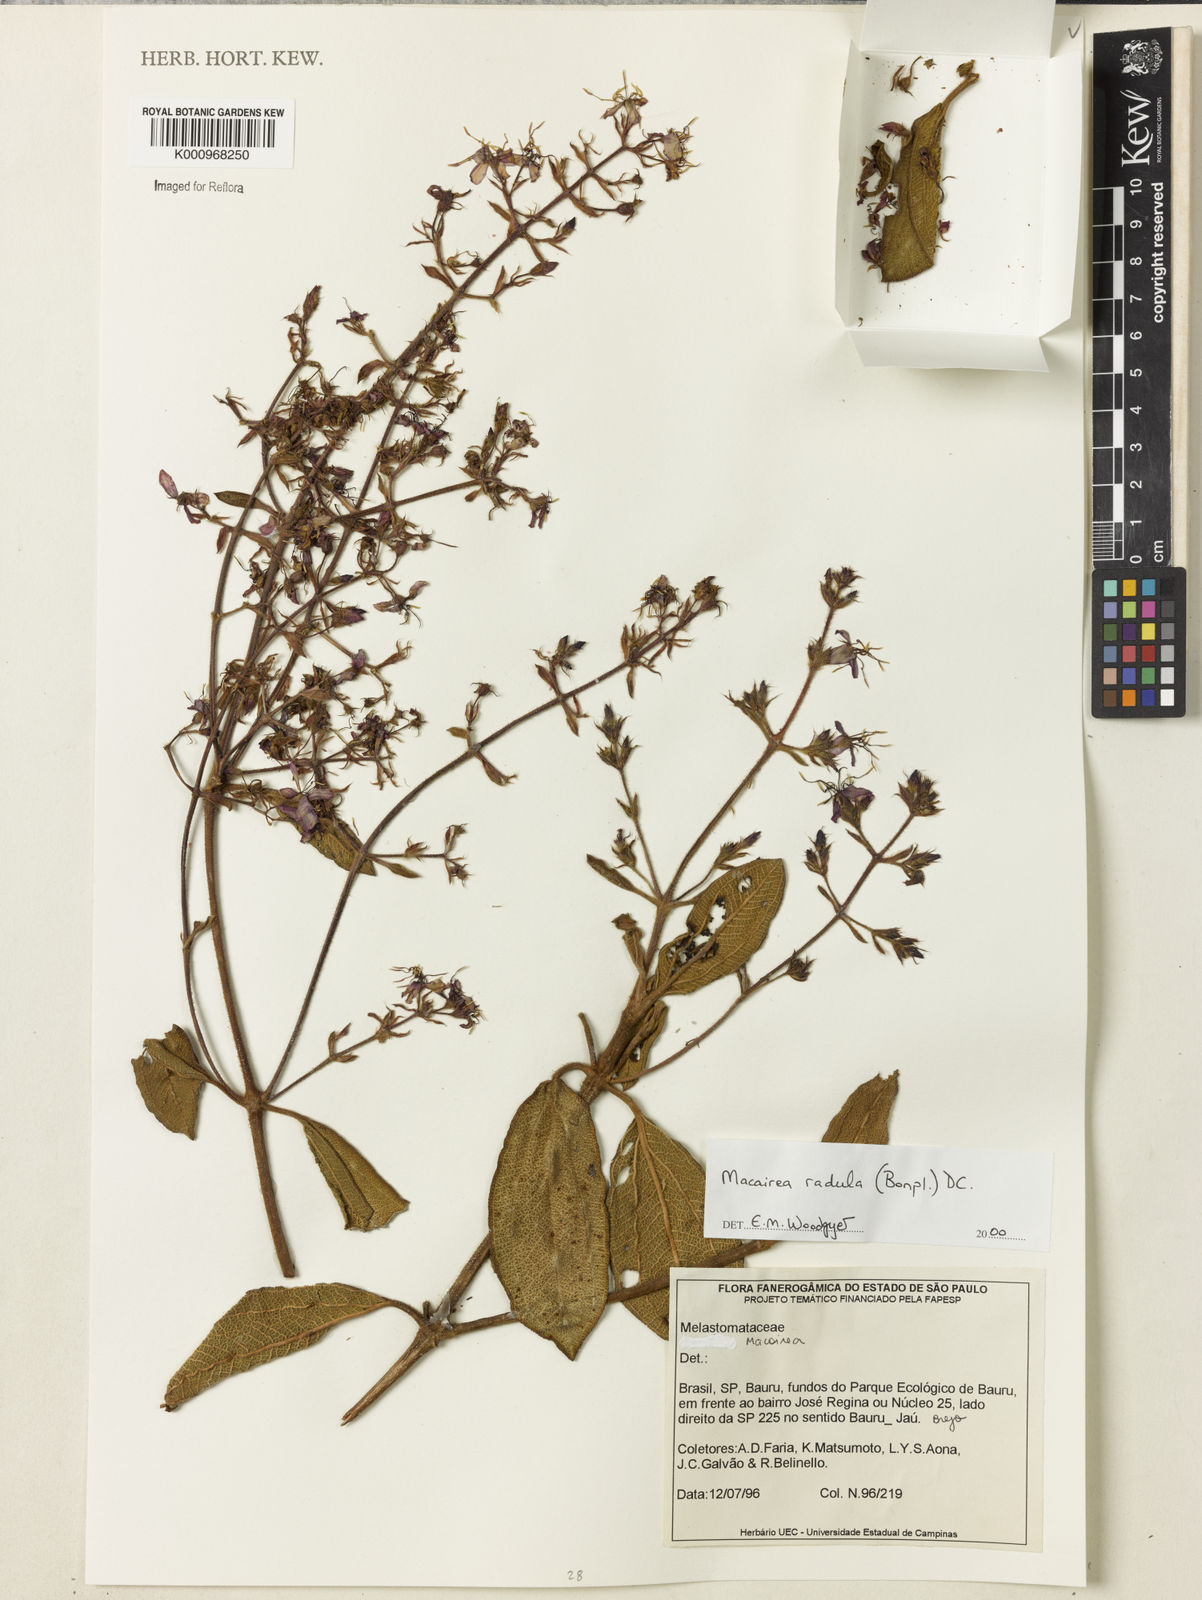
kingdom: Plantae
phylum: Tracheophyta
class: Magnoliopsida
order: Myrtales
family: Melastomataceae
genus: Macairea
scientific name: Macairea radula
